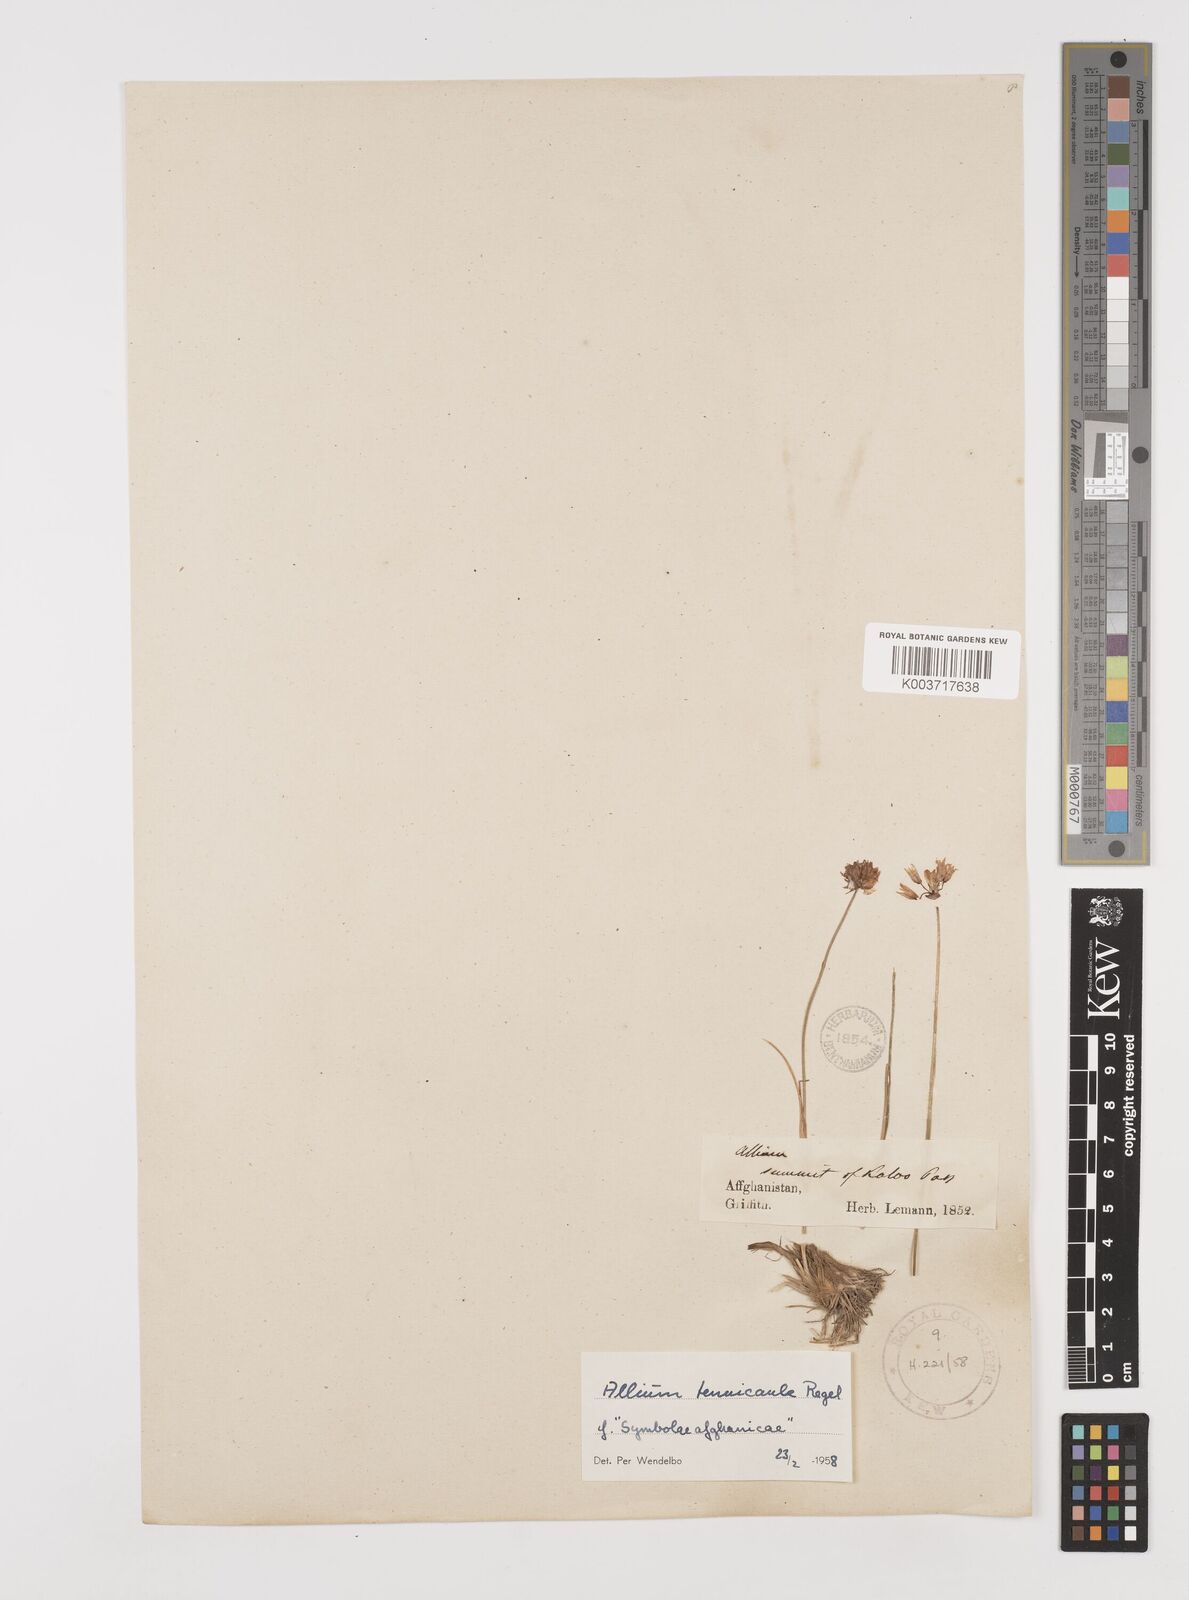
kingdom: Plantae
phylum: Tracheophyta
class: Liliopsida
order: Asparagales
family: Amaryllidaceae
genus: Allium
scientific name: Allium tenuicaule
